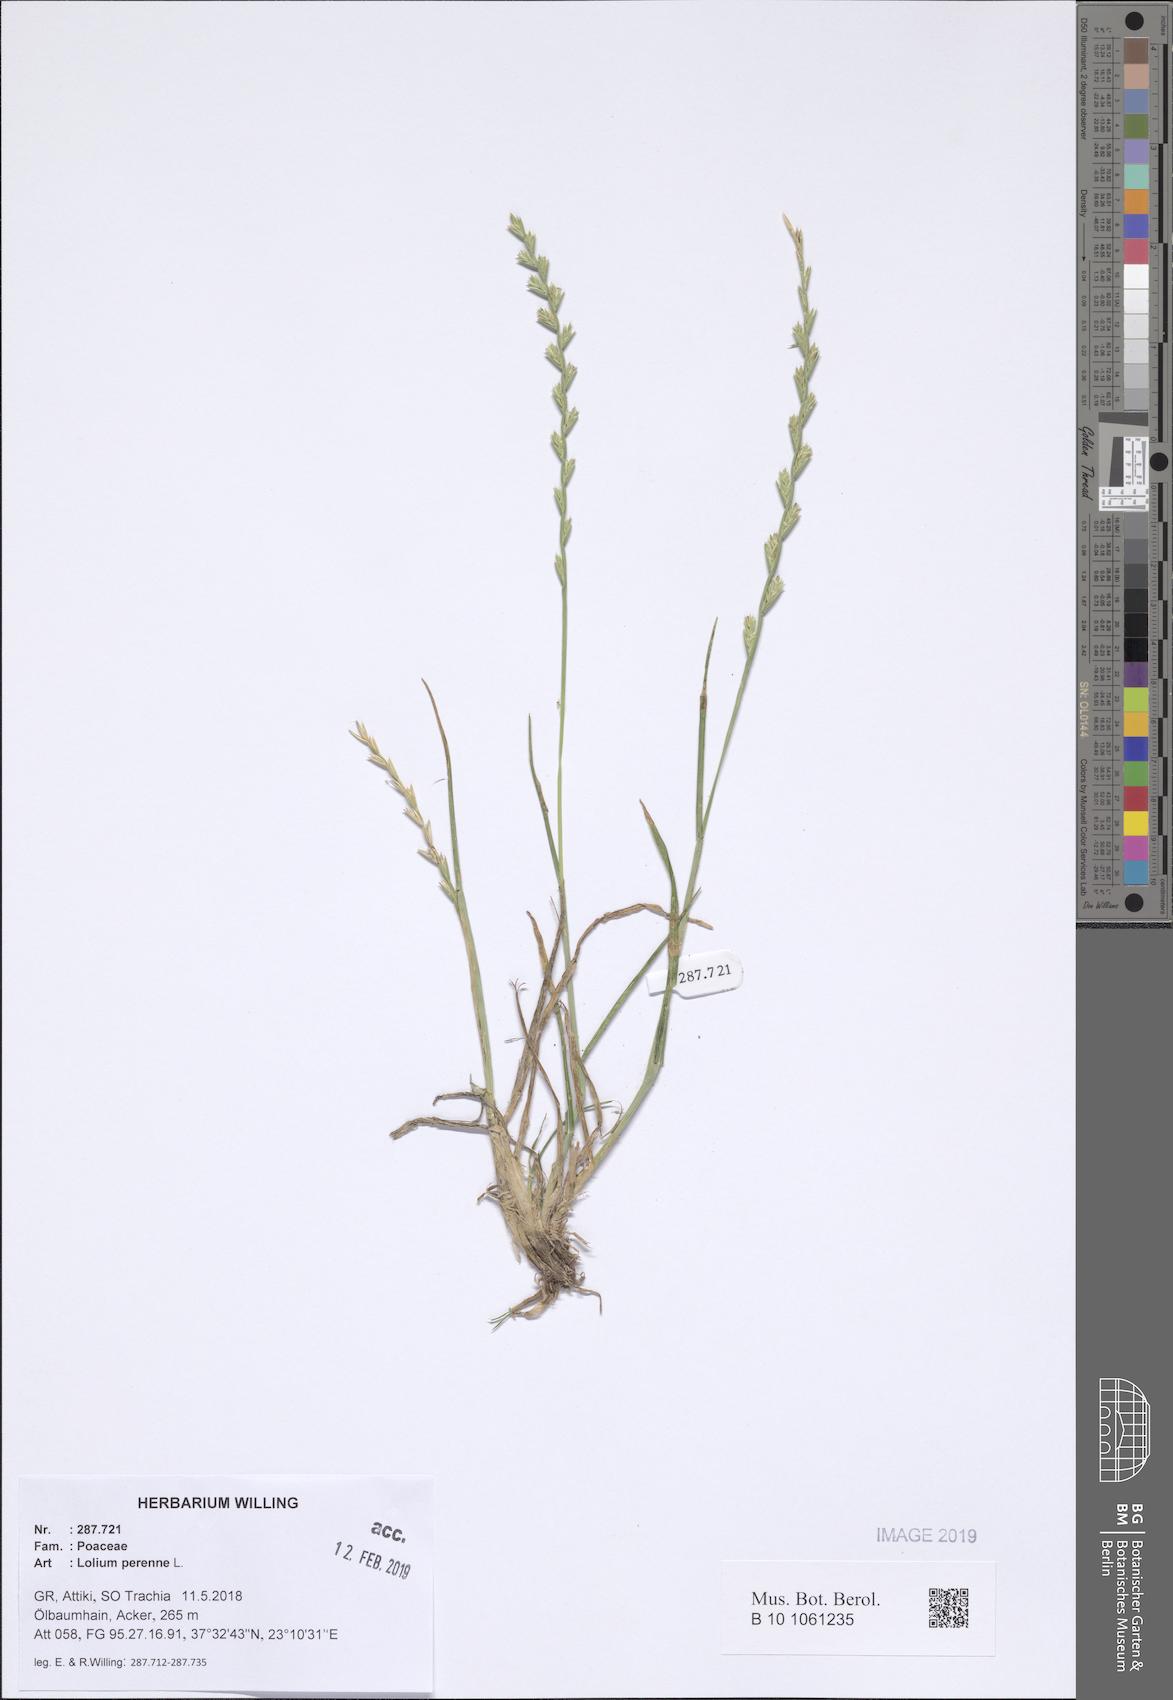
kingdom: Plantae
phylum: Tracheophyta
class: Liliopsida
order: Poales
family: Poaceae
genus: Lolium
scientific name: Lolium perenne
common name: Perennial ryegrass
